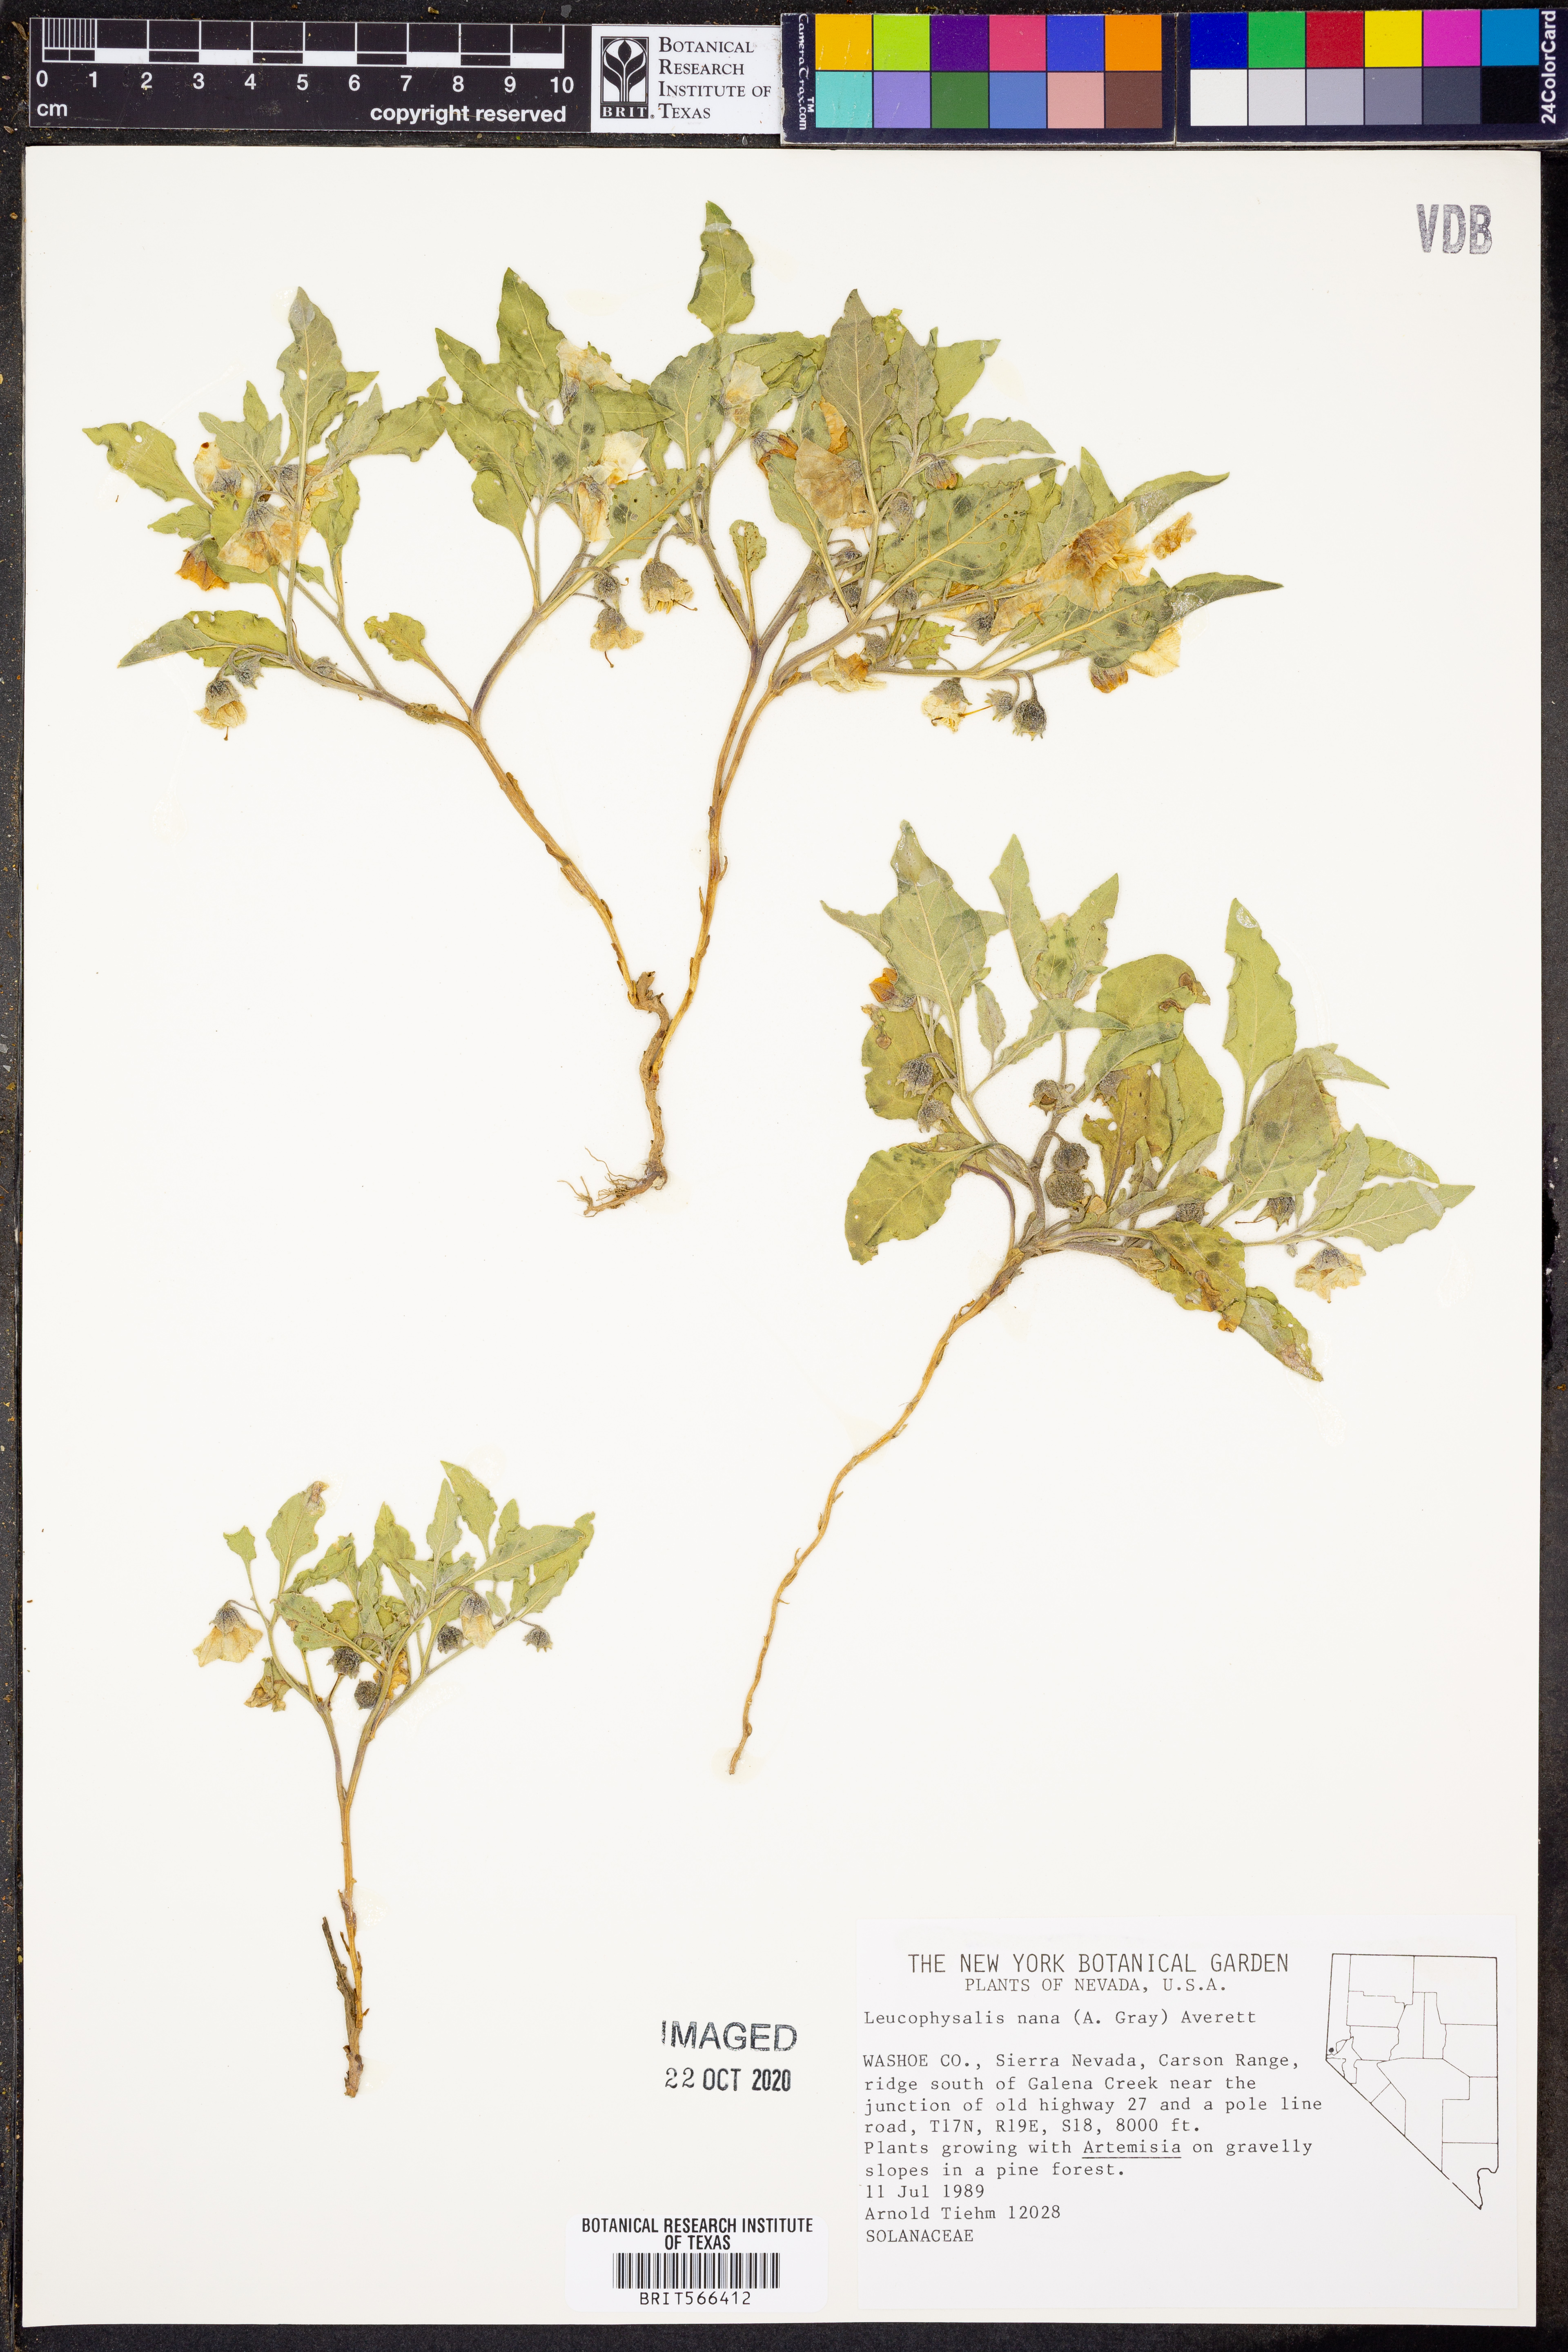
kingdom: Plantae
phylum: Tracheophyta
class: Magnoliopsida
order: Solanales
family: Solanaceae
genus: Leucophysalis
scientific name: Leucophysalis nana
